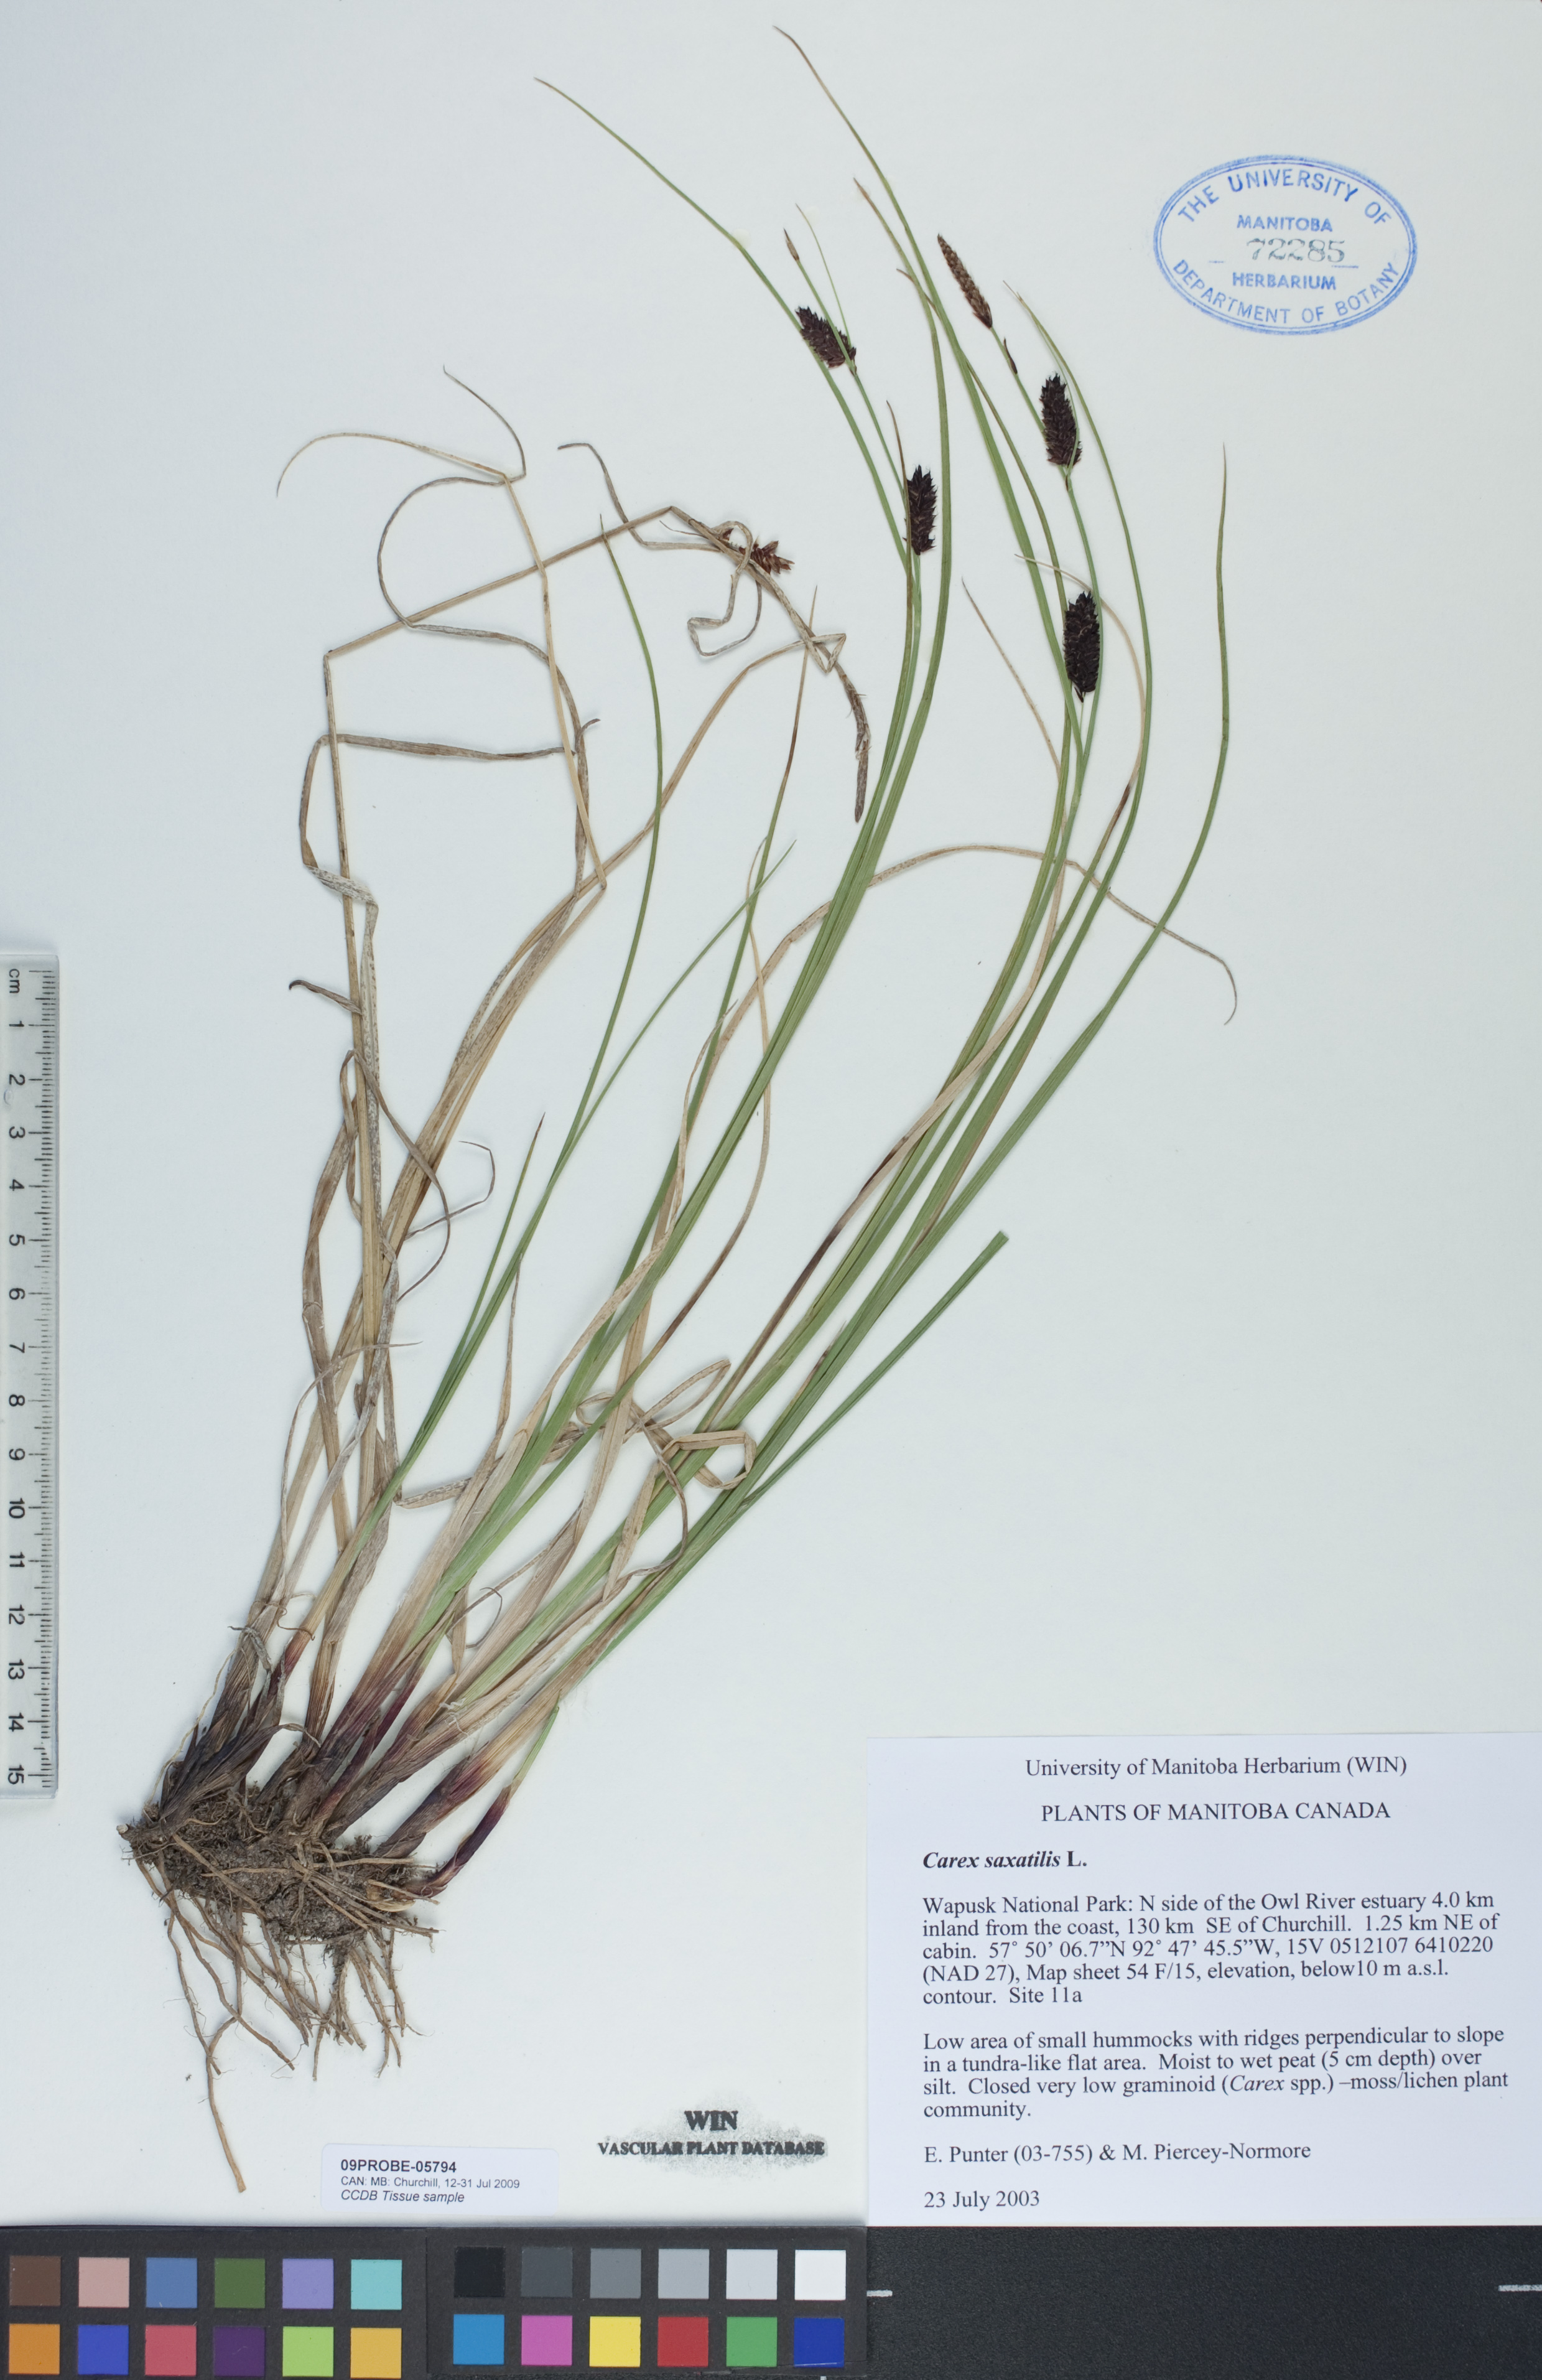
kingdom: Plantae
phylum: Tracheophyta
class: Liliopsida
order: Poales
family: Cyperaceae
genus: Carex
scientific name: Carex saxatilis
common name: Russet sedge
